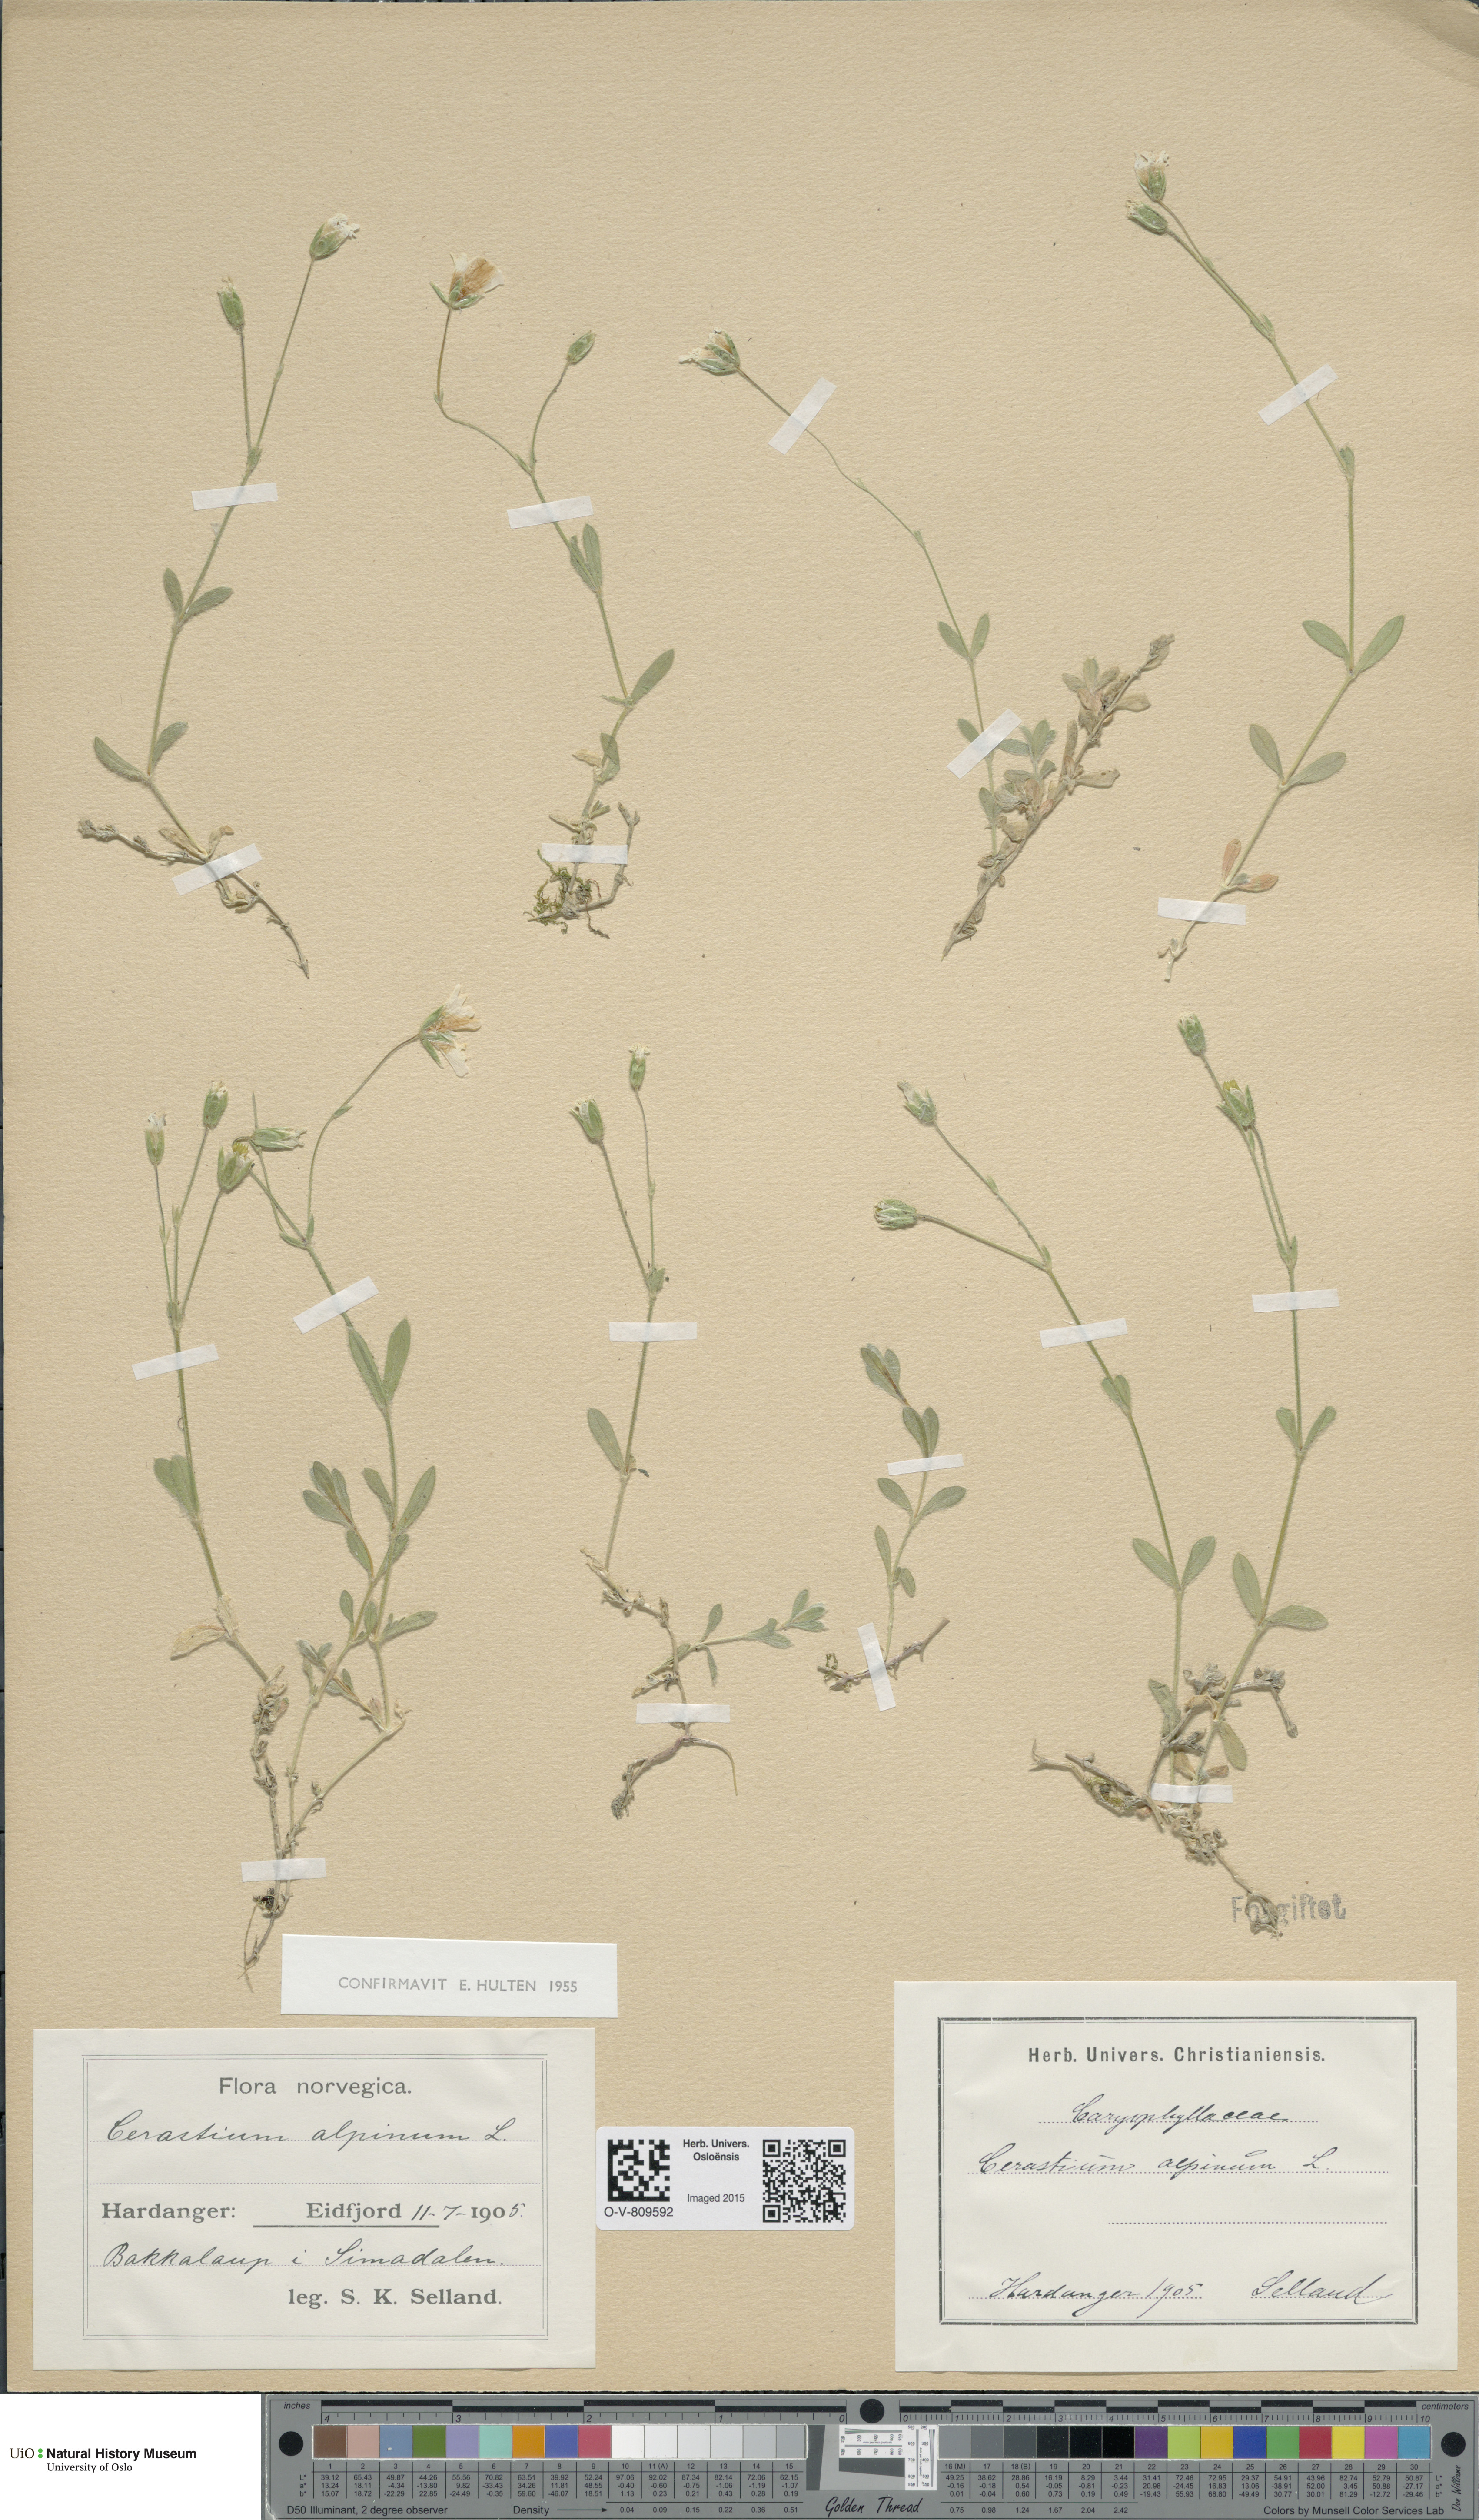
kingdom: Plantae
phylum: Tracheophyta
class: Magnoliopsida
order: Caryophyllales
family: Caryophyllaceae
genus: Cerastium
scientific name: Cerastium alpinum
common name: Alpine mouse-ear
